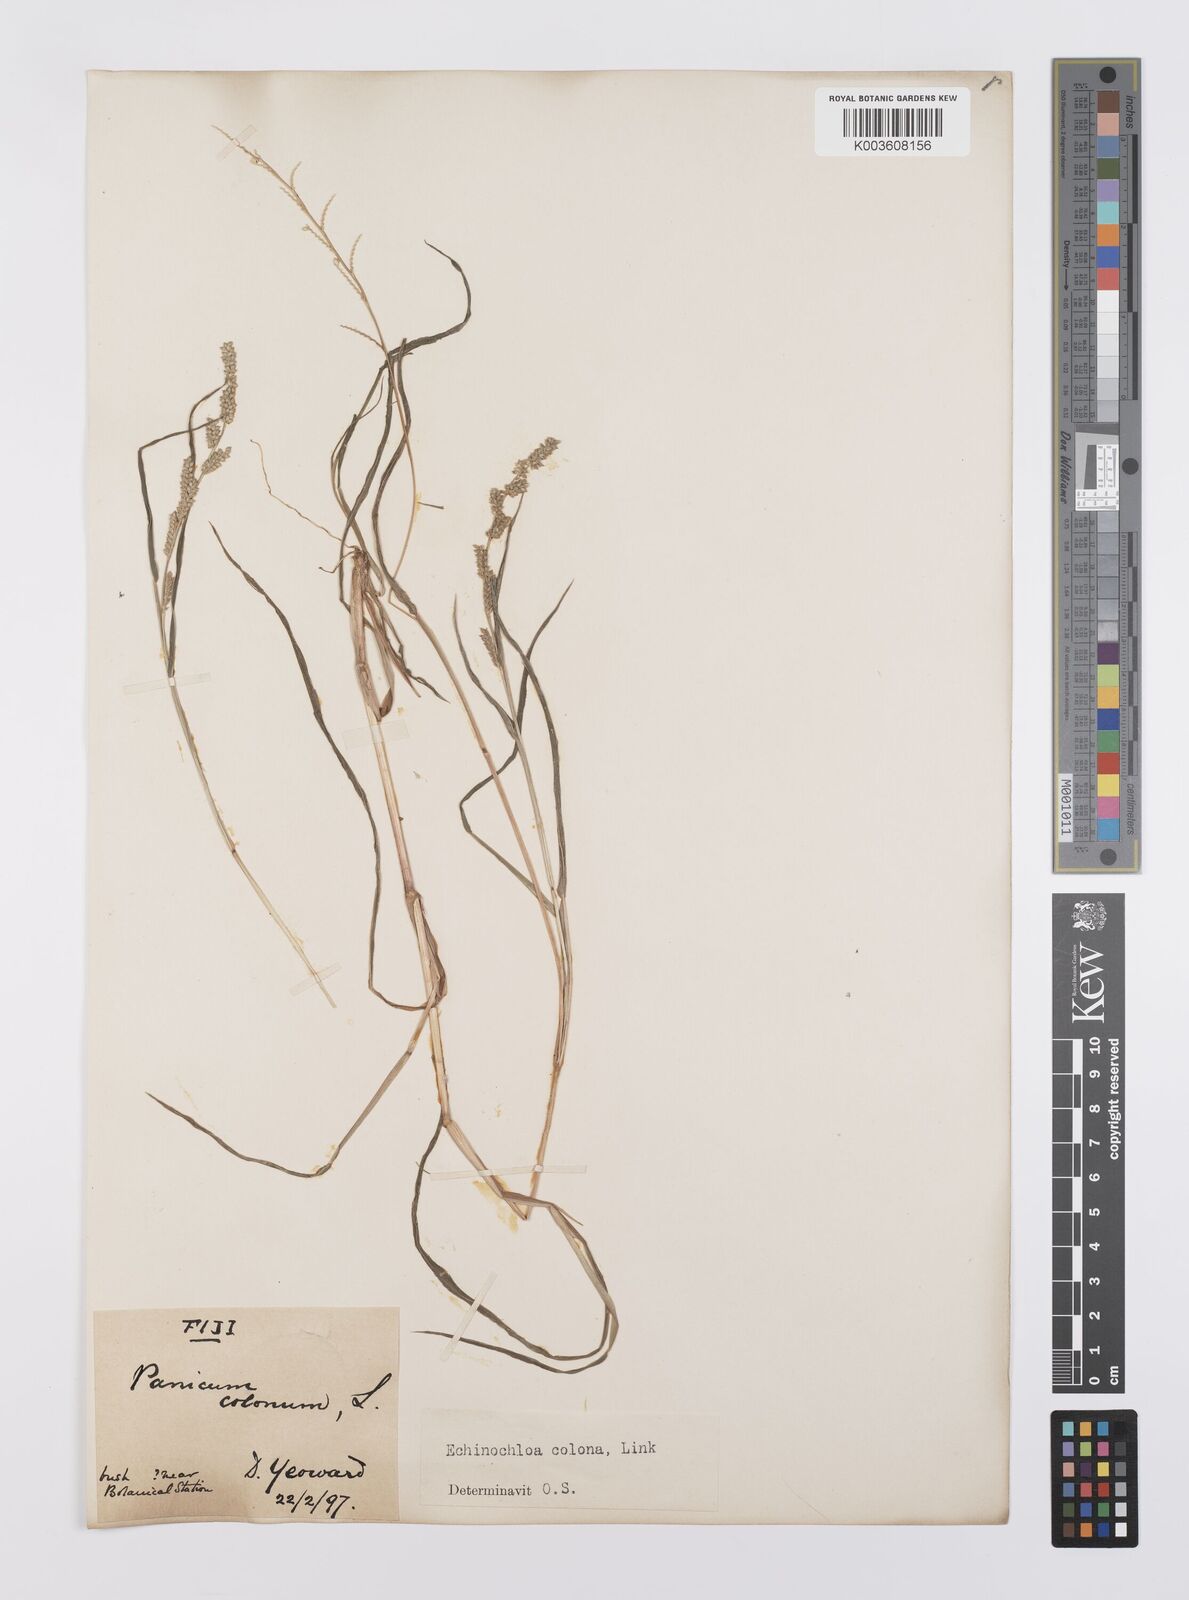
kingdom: Plantae
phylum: Tracheophyta
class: Liliopsida
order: Poales
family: Poaceae
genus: Echinochloa
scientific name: Echinochloa colonum
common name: Jungle rice
